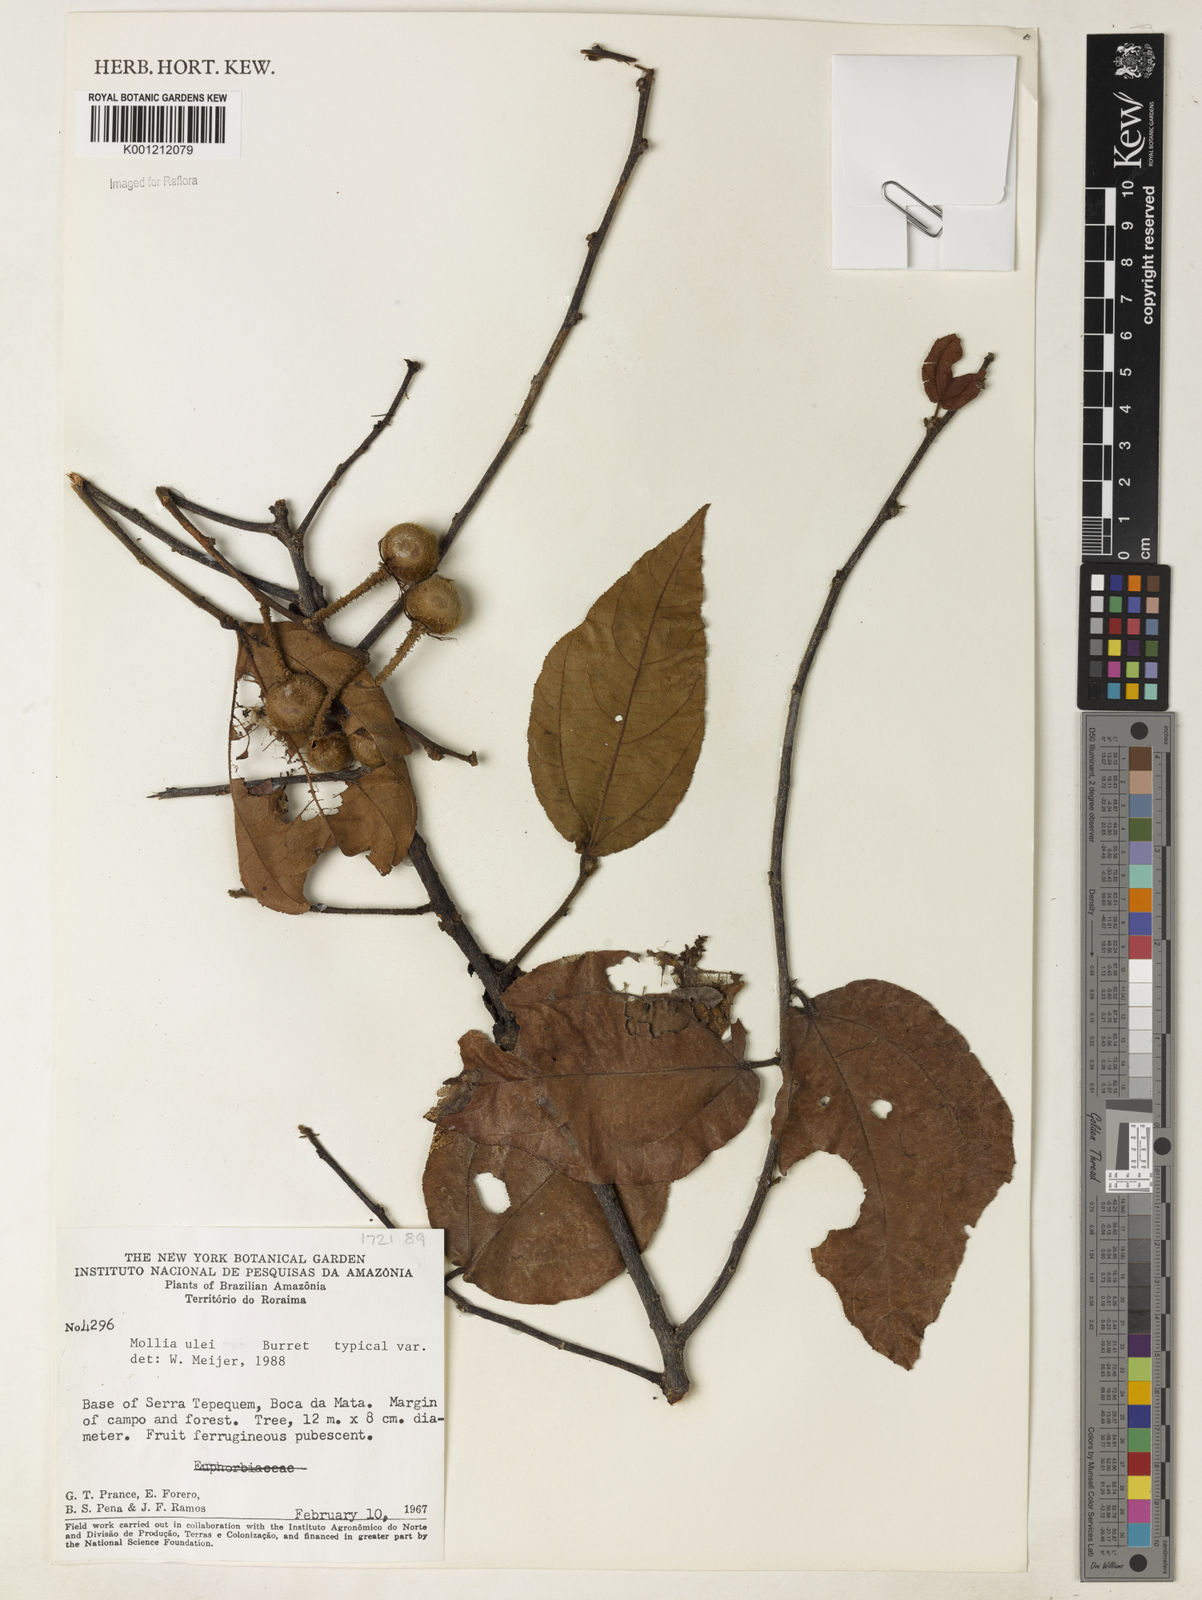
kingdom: Plantae
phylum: Tracheophyta
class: Magnoliopsida
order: Malvales
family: Malvaceae
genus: Mollia
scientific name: Mollia ulei
